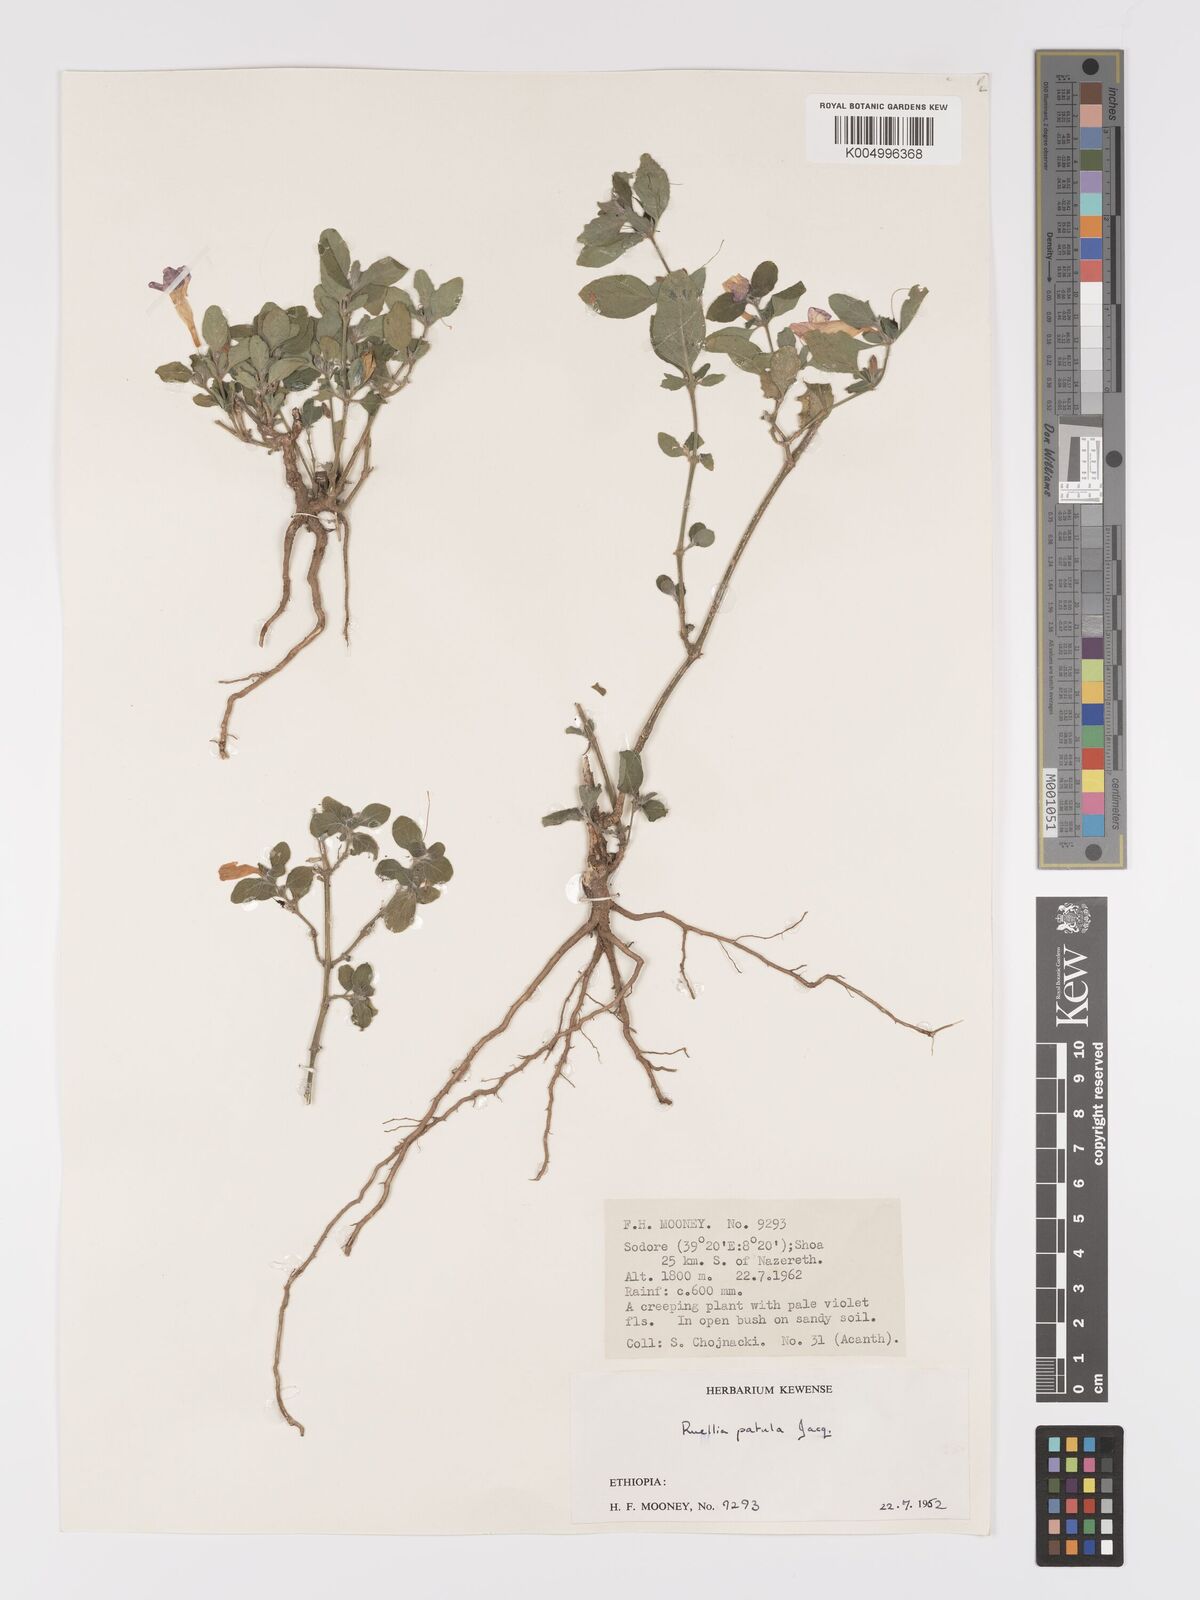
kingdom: Plantae
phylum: Tracheophyta
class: Magnoliopsida
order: Lamiales
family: Acanthaceae
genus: Ruellia
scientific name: Ruellia patula
